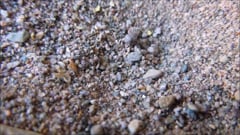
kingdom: Animalia
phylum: Arthropoda
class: Insecta
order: Neuroptera
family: Myrmeleontidae
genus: Myrmeleon
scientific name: Myrmeleon formicarius
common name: Ant-lion
